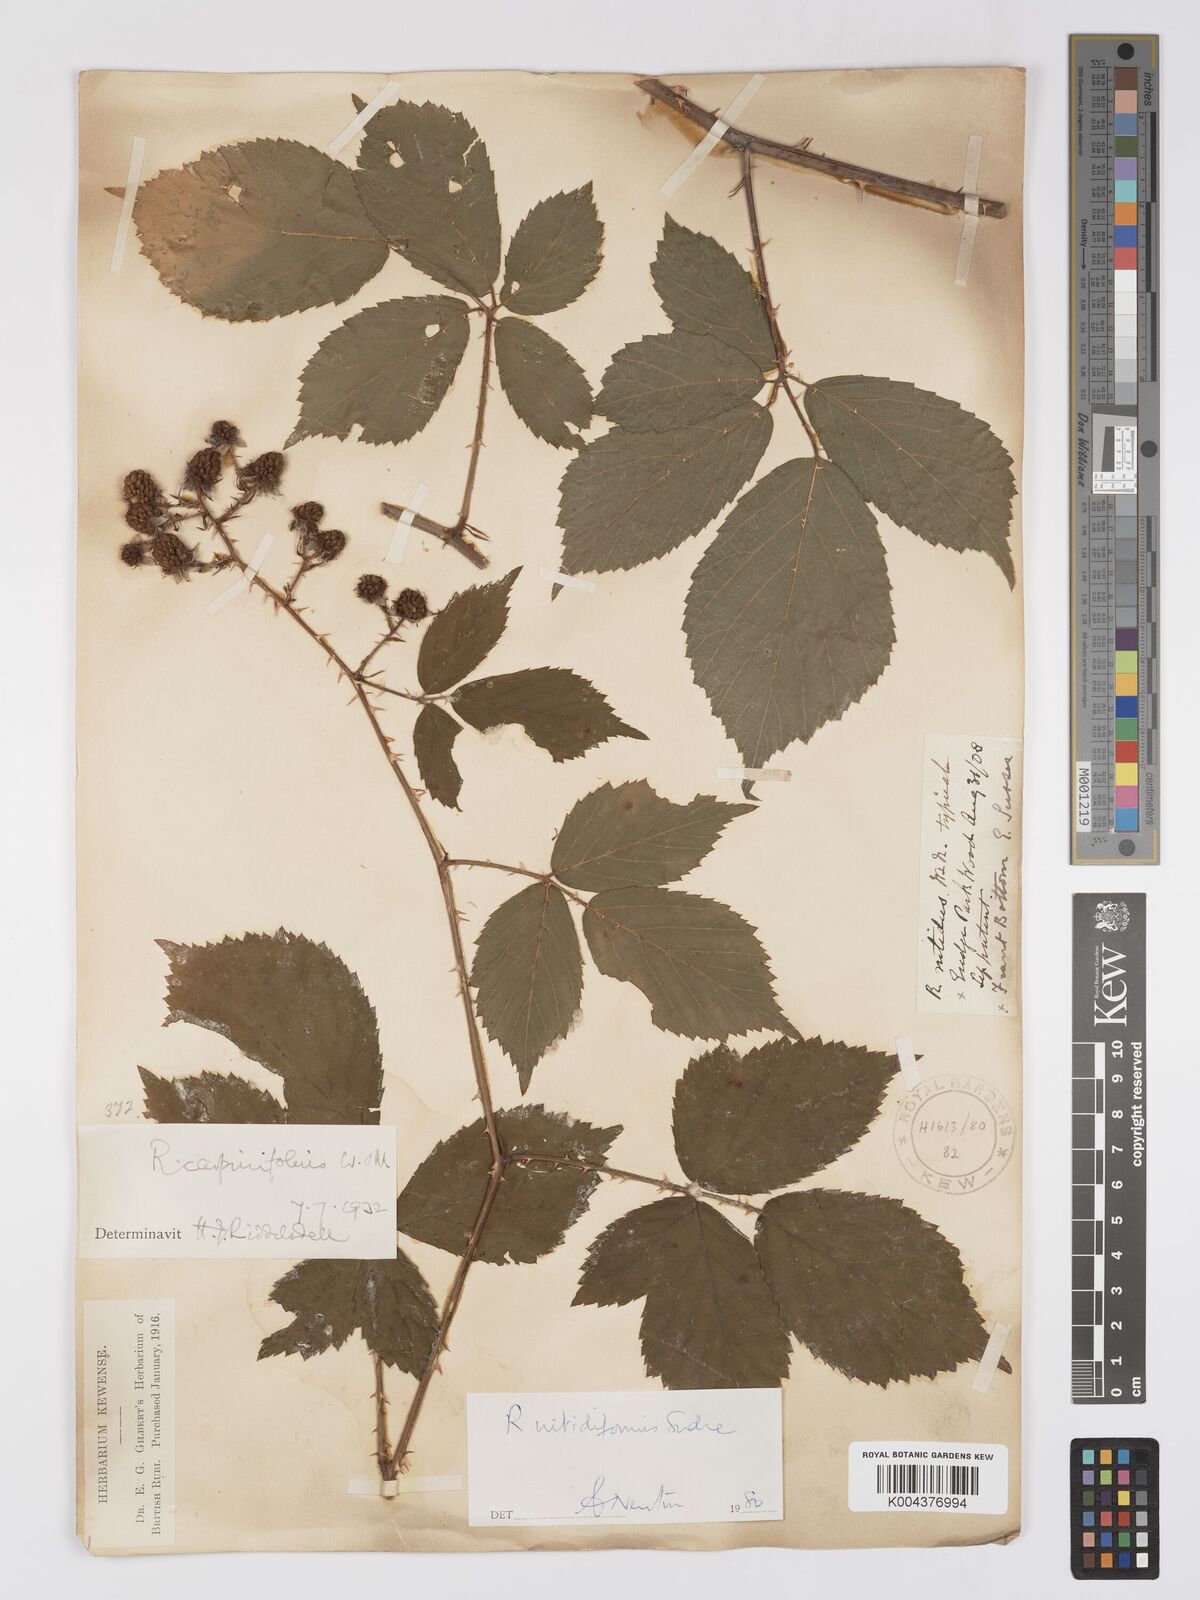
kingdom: Plantae
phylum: Tracheophyta
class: Magnoliopsida
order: Rosales
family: Rosaceae
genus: Rubus
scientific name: Rubus nitidiformis
